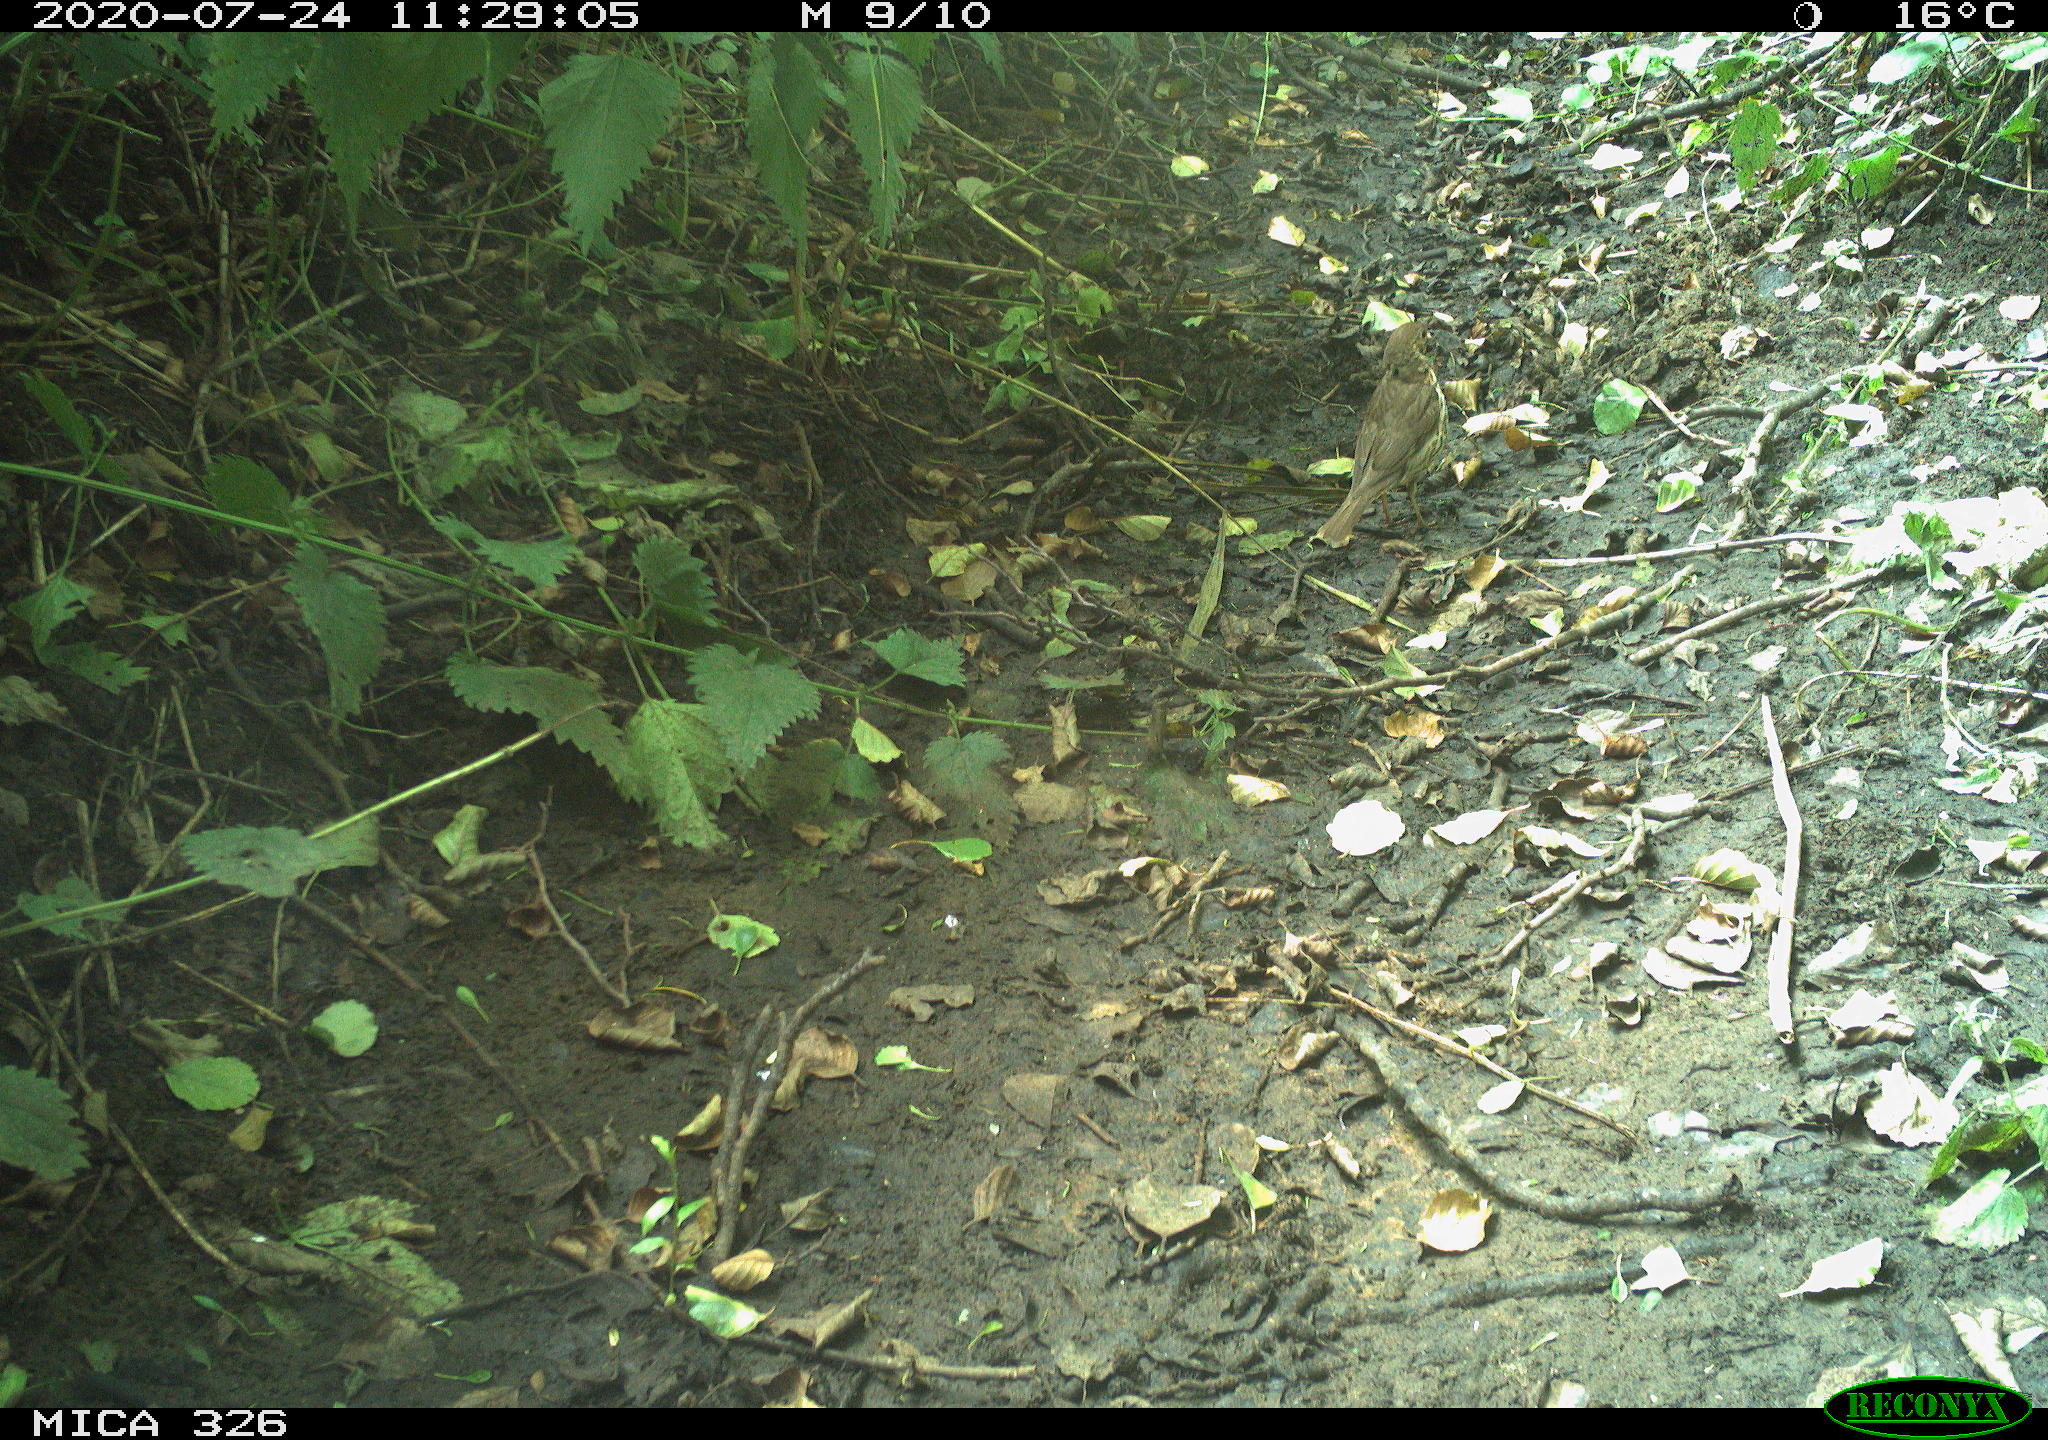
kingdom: Animalia
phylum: Chordata
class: Aves
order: Passeriformes
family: Turdidae
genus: Turdus
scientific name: Turdus philomelos
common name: Song thrush
